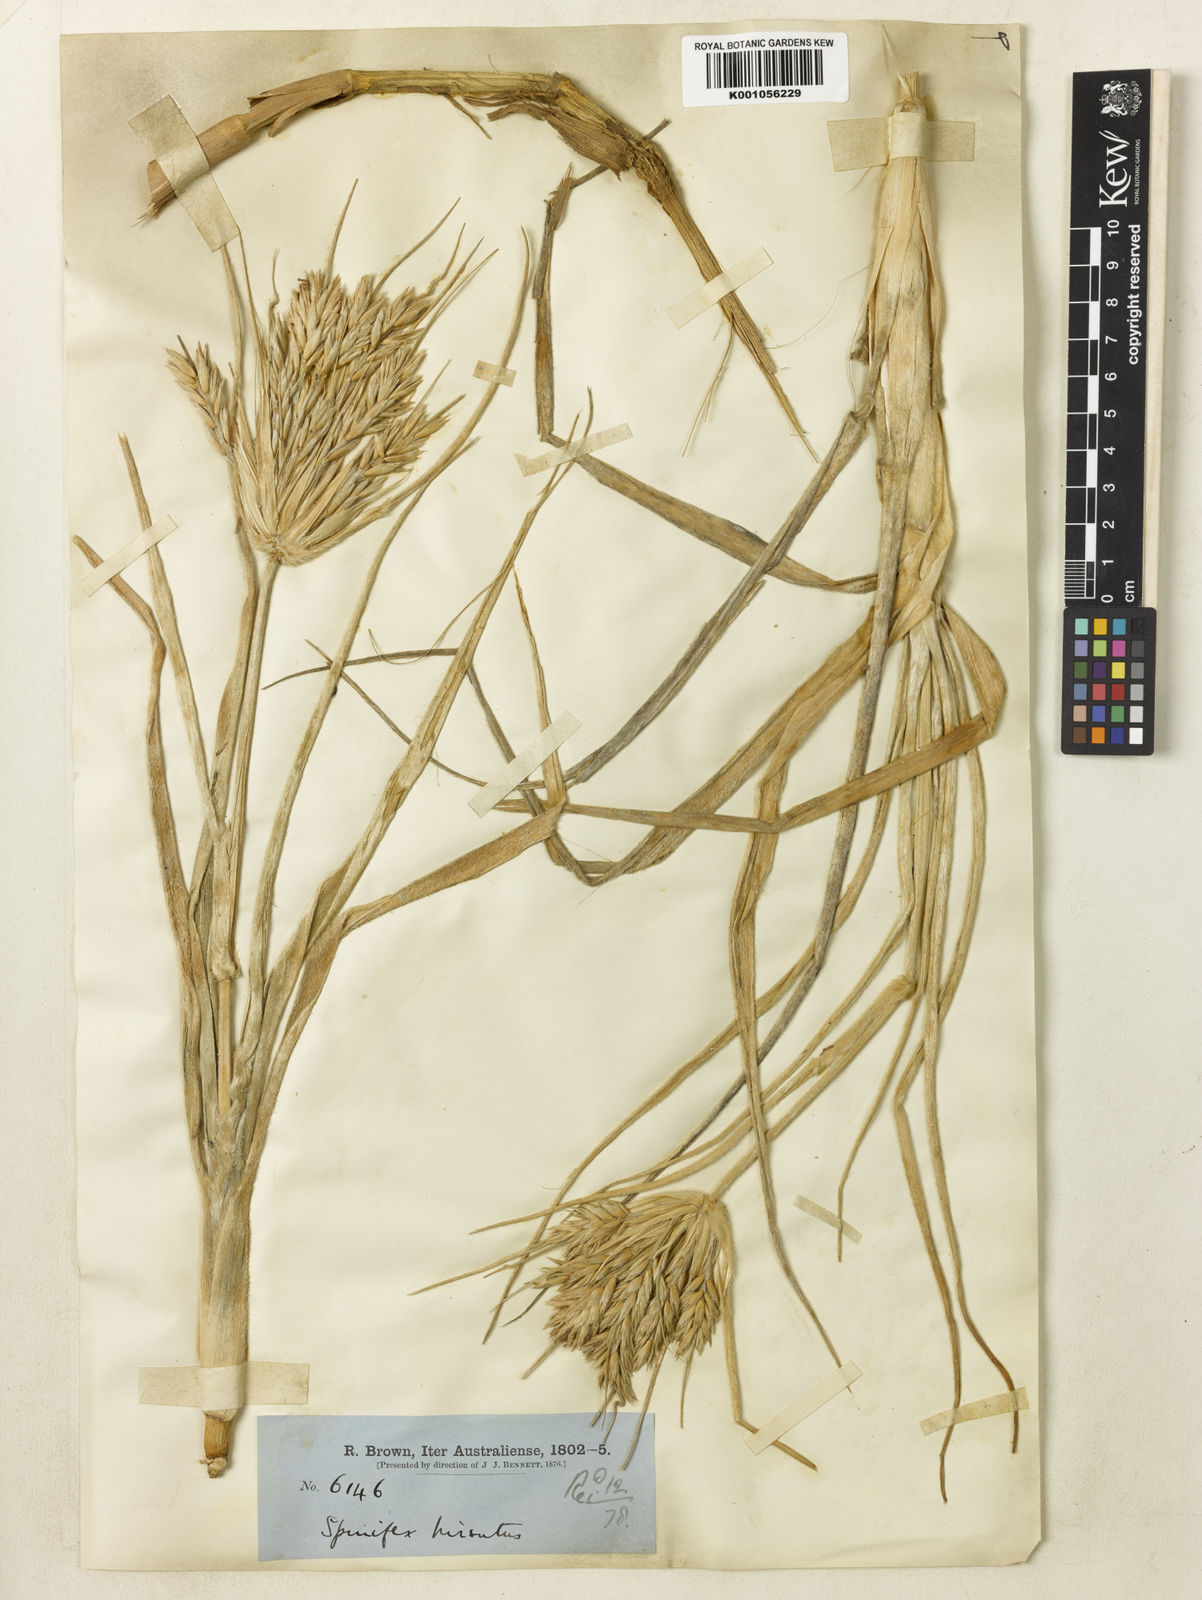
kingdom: Plantae
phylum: Tracheophyta
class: Liliopsida
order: Poales
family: Poaceae
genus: Spinifex
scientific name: Spinifex sericeus
